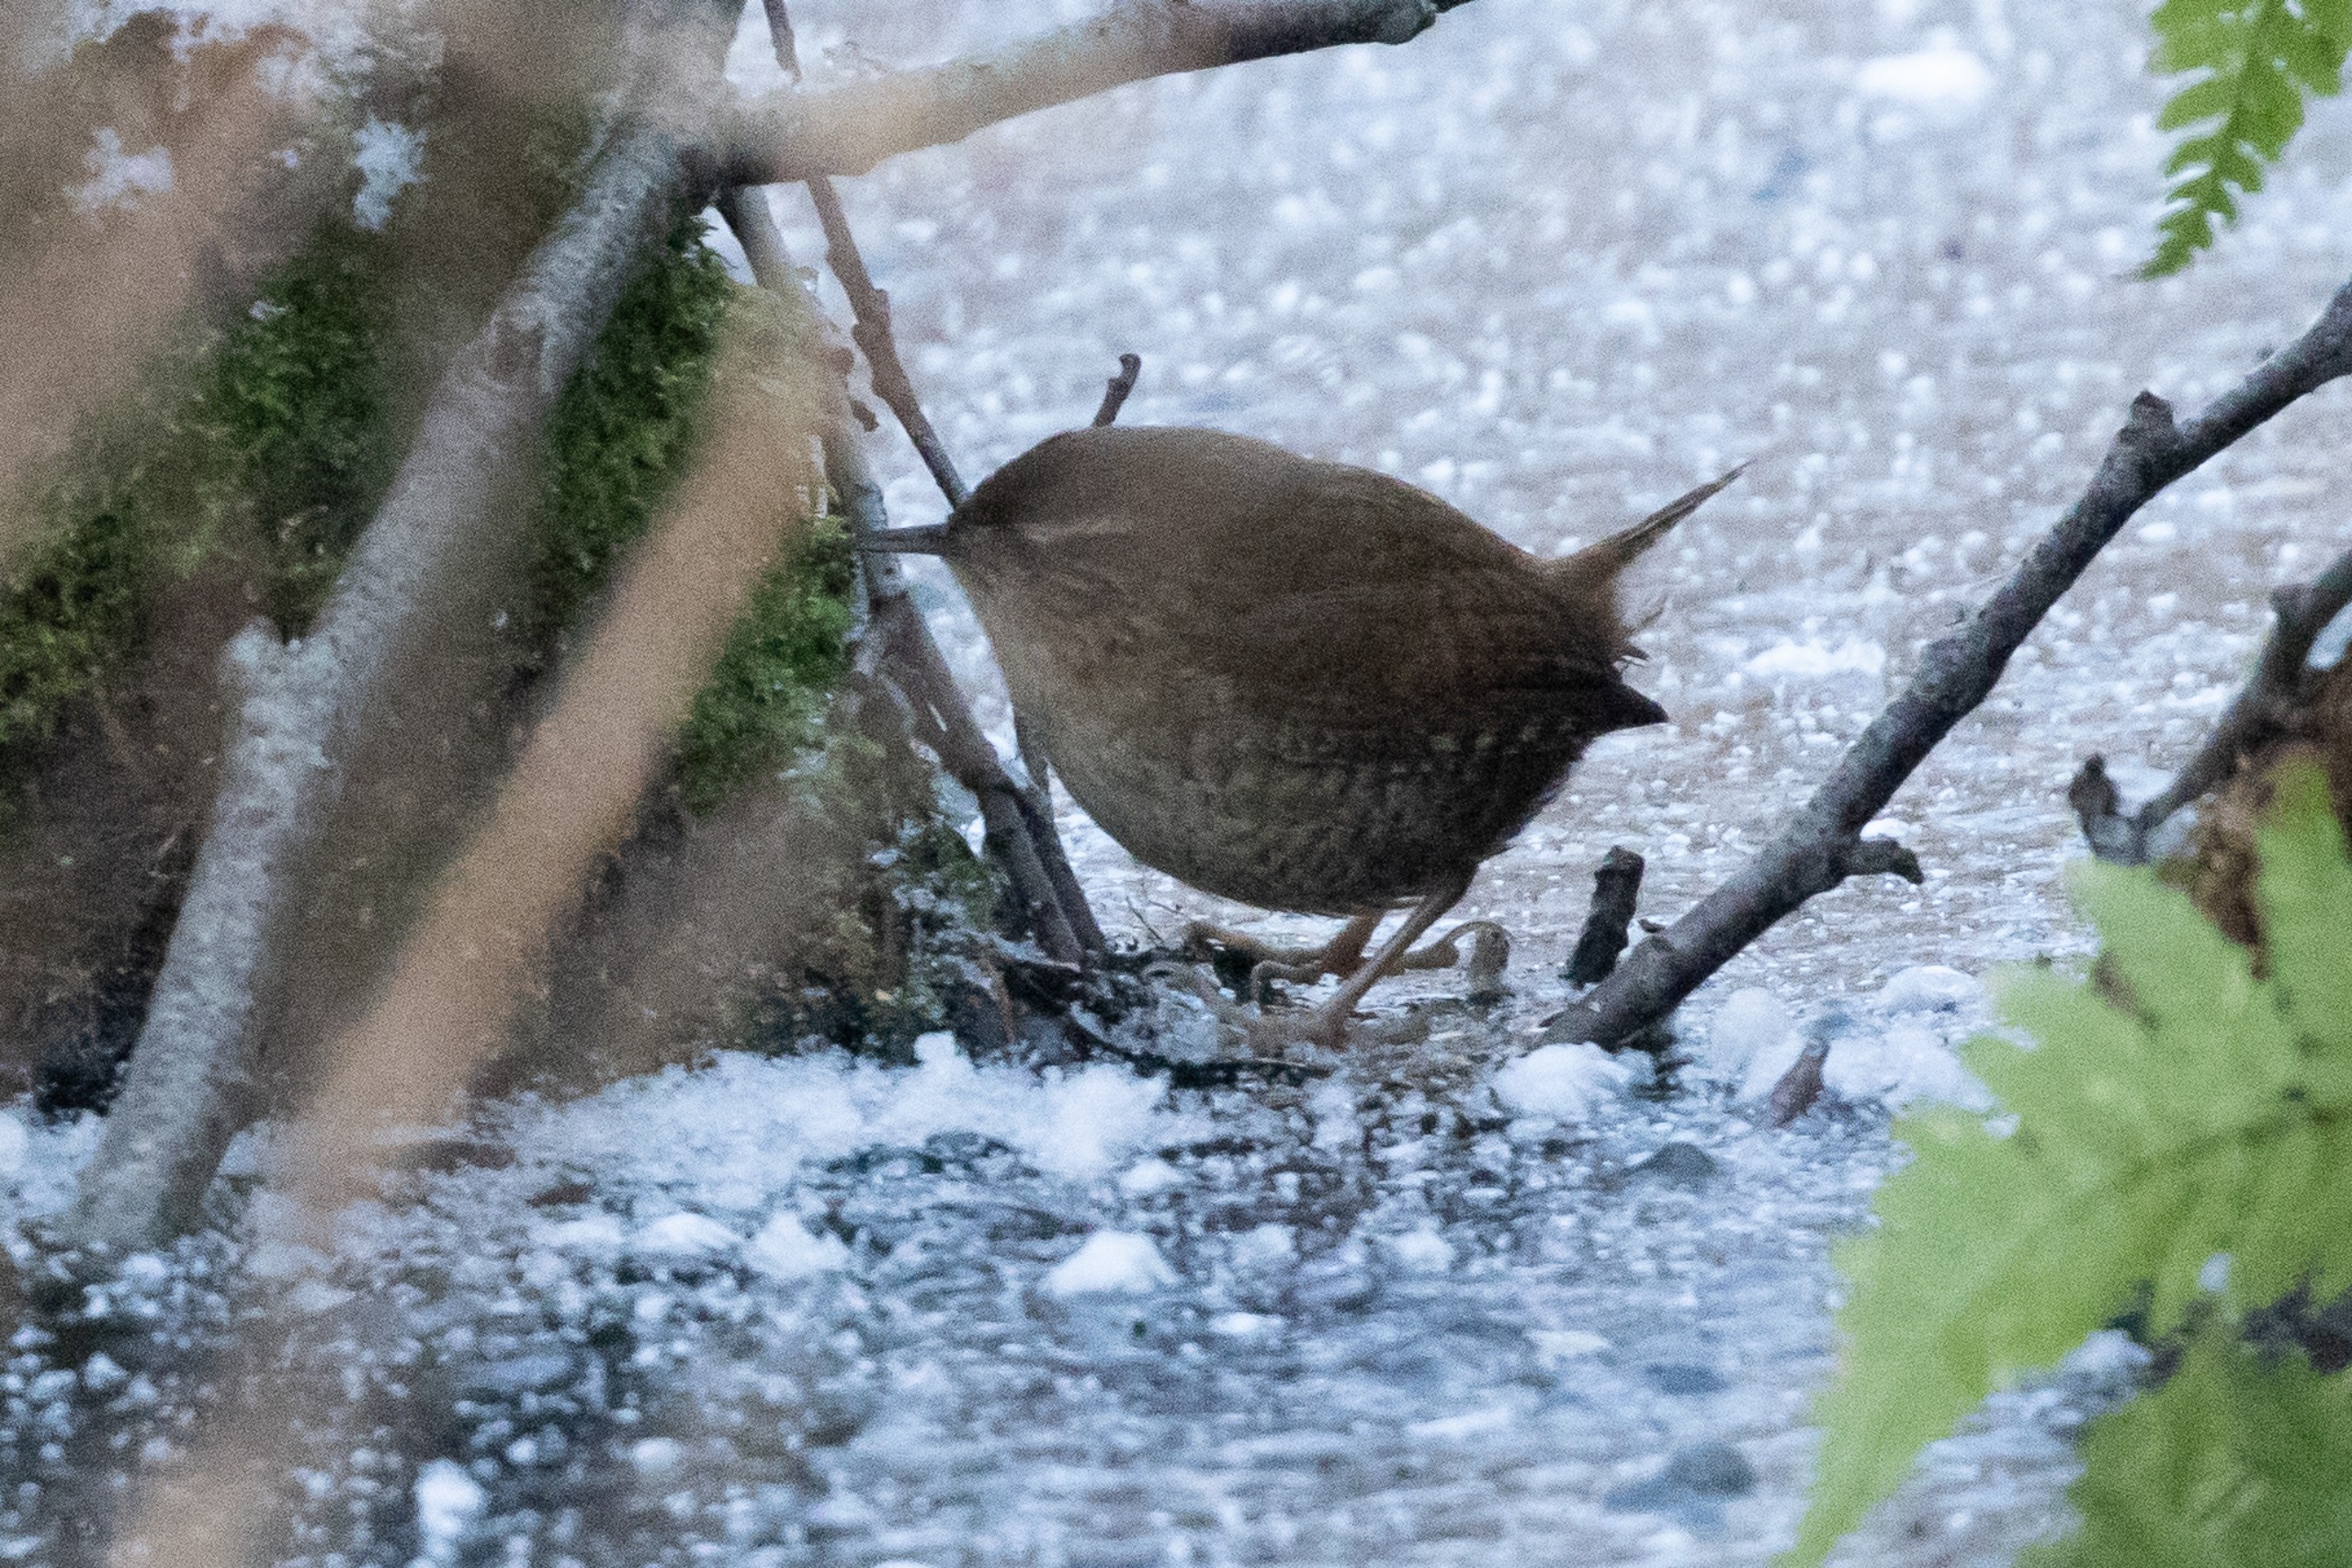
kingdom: Animalia
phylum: Chordata
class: Aves
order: Passeriformes
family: Troglodytidae
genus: Troglodytes
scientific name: Troglodytes troglodytes
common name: Gærdesmutte
